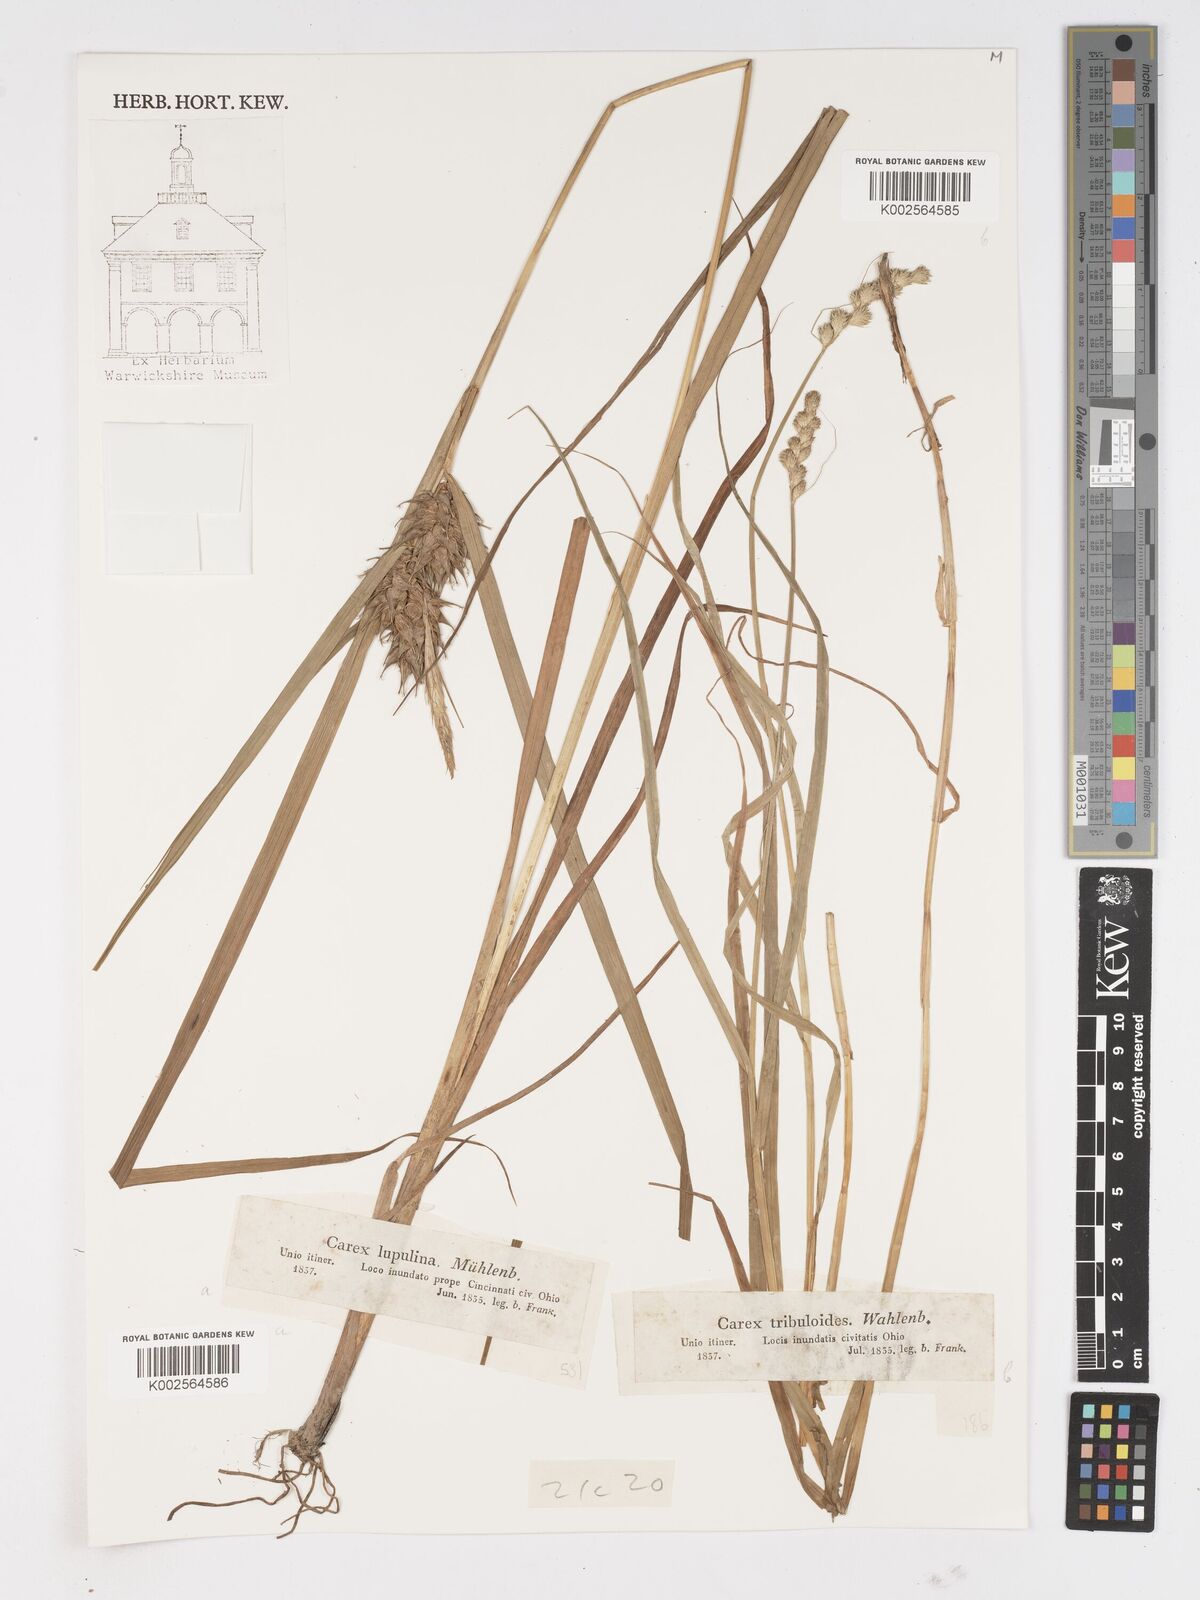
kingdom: Plantae
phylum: Tracheophyta
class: Liliopsida
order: Poales
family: Cyperaceae
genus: Carex
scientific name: Carex lupulina
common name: Hop sedge
